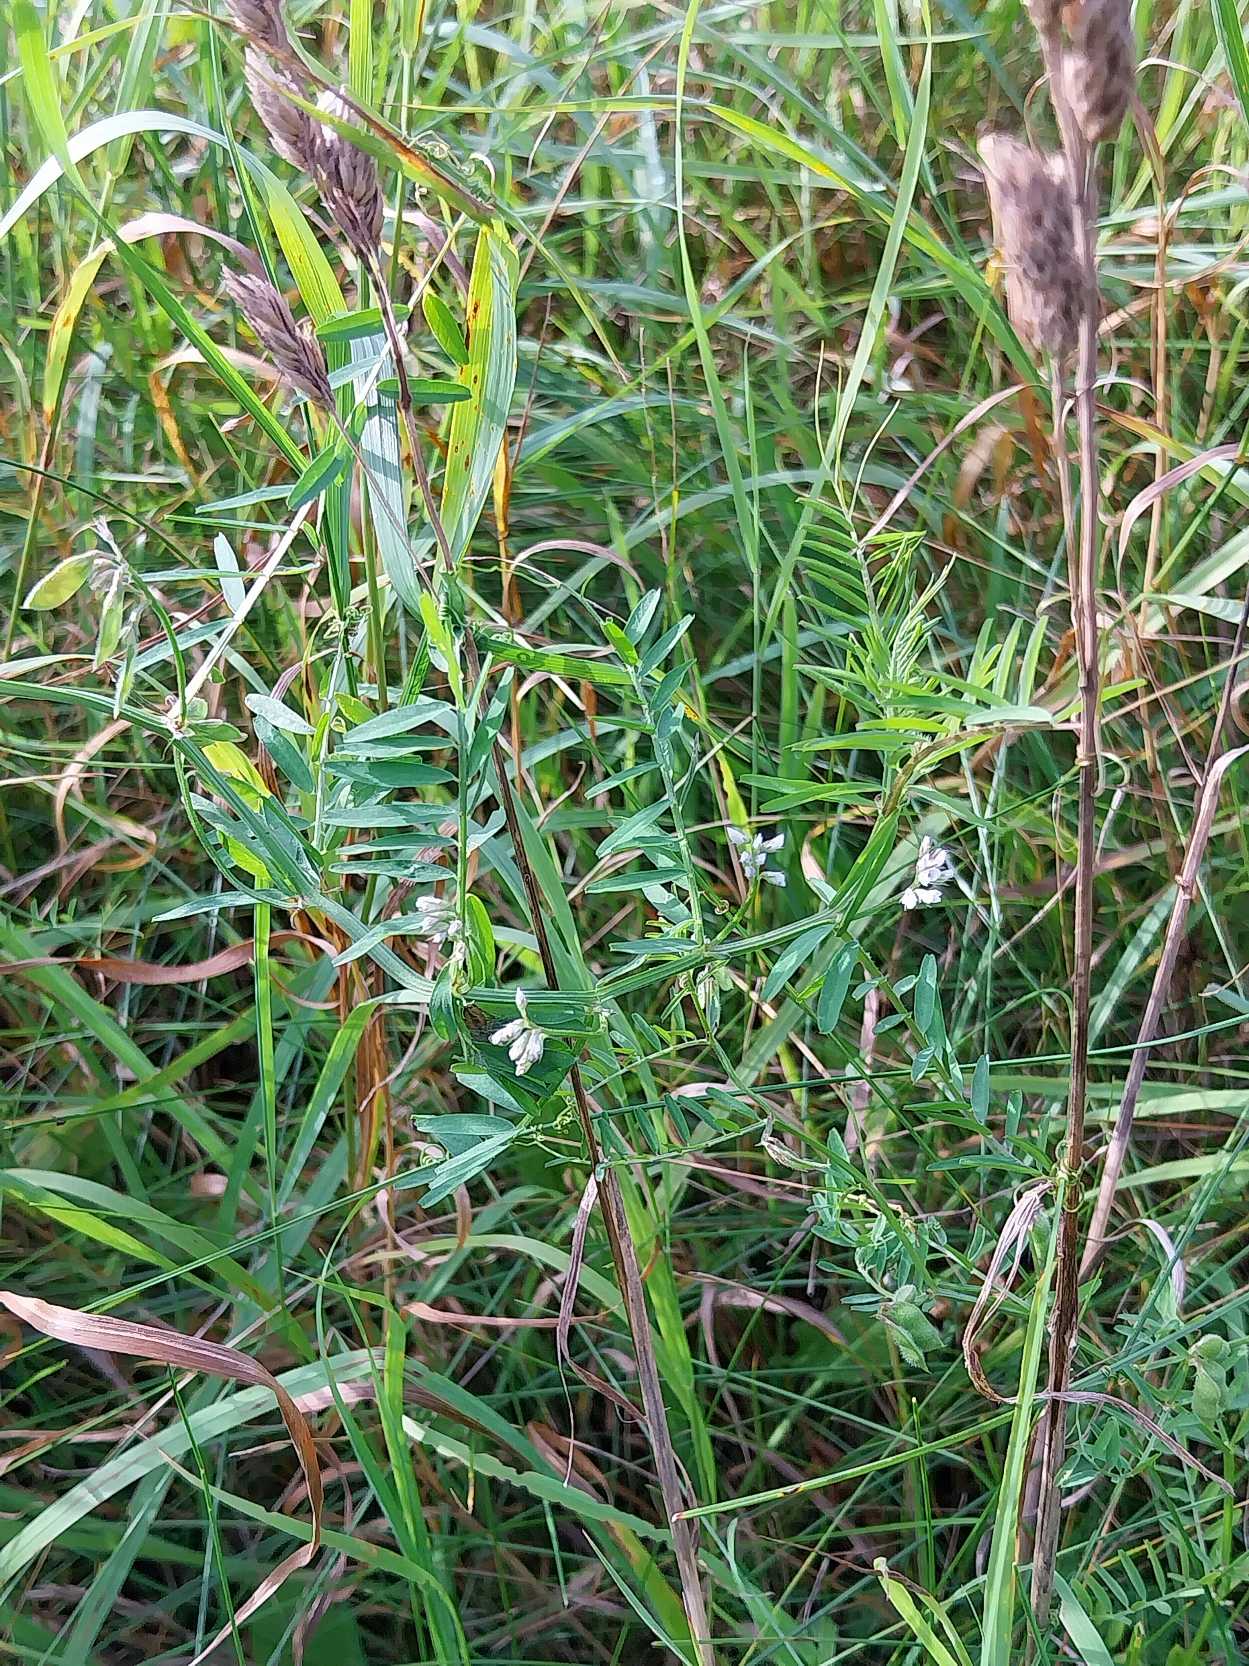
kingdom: Plantae
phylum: Tracheophyta
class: Magnoliopsida
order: Fabales
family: Fabaceae
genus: Vicia
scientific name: Vicia hirsuta
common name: Tofrøet vikke
